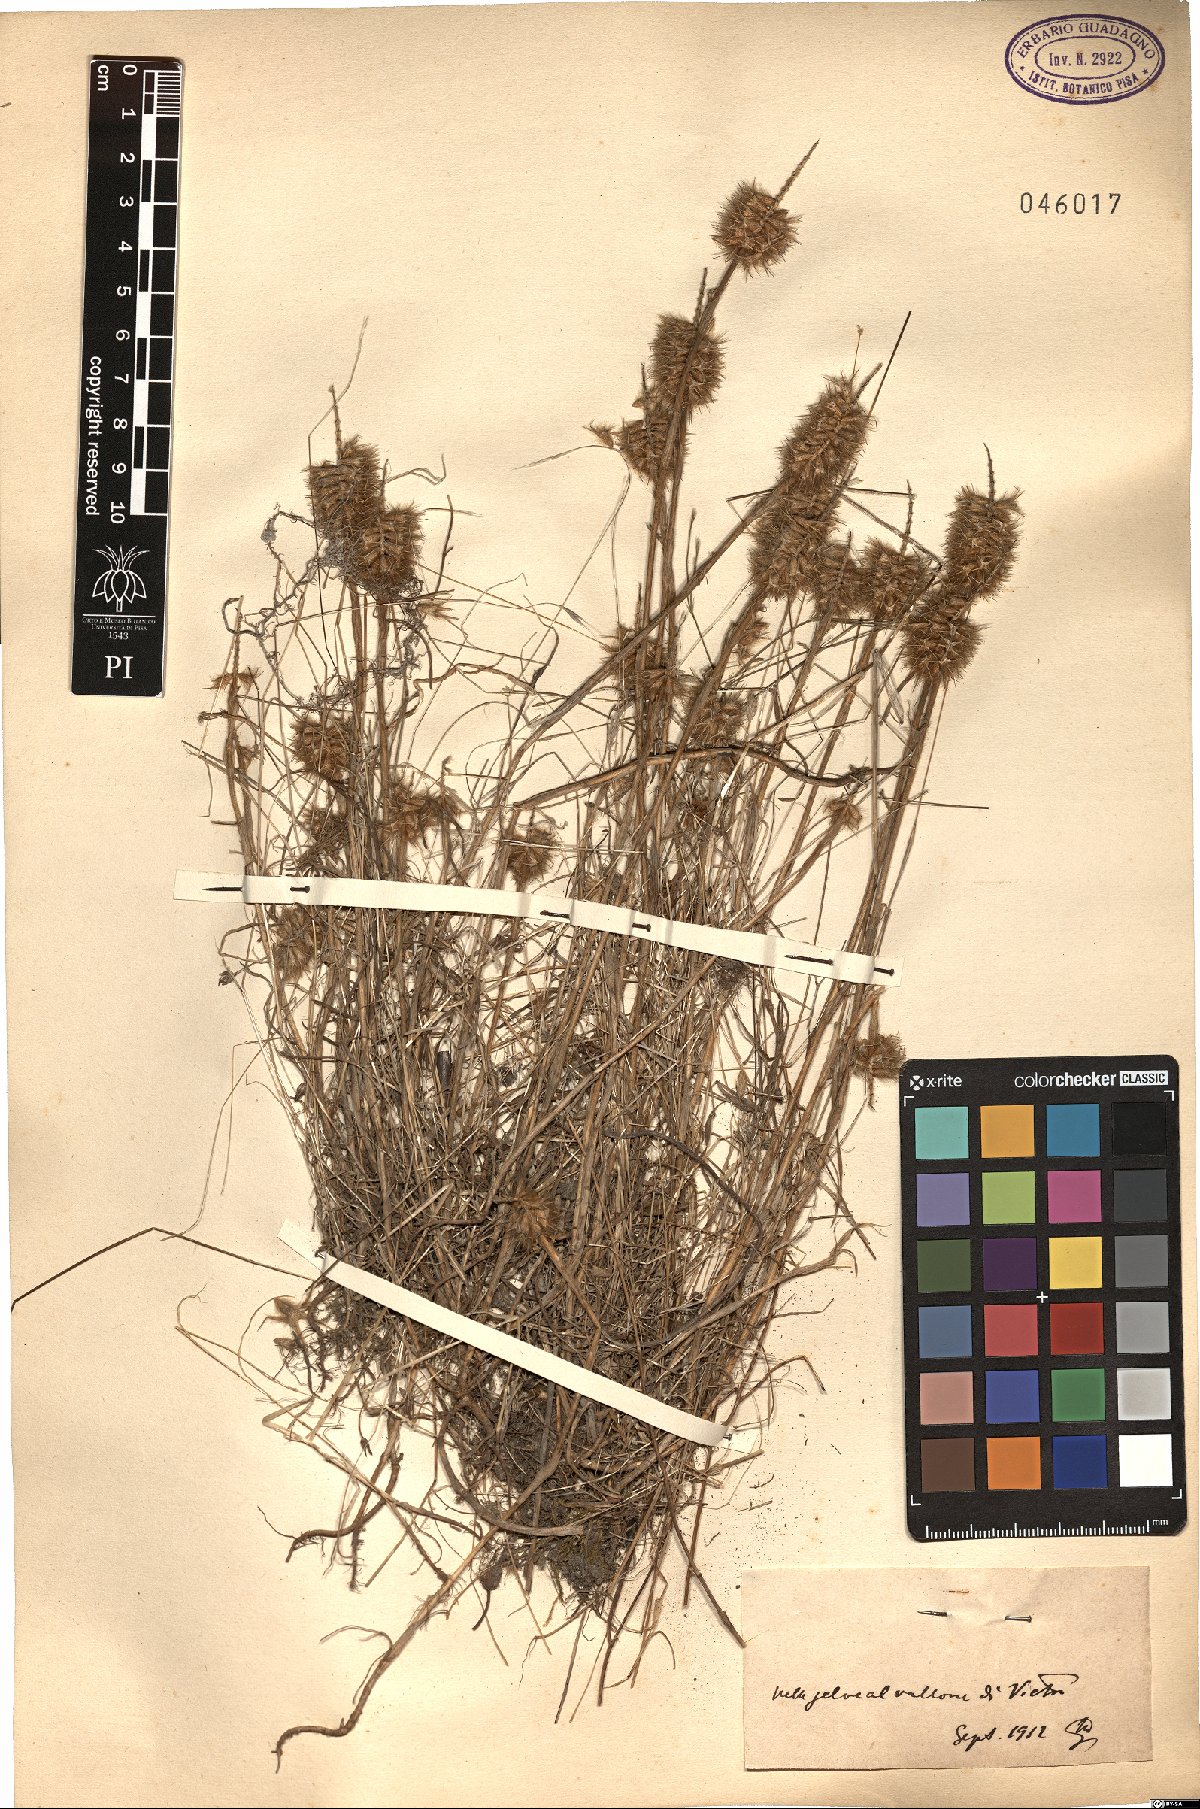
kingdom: Plantae
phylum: Tracheophyta
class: Magnoliopsida
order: Fabales
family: Fabaceae
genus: Trifolium
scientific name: Trifolium
